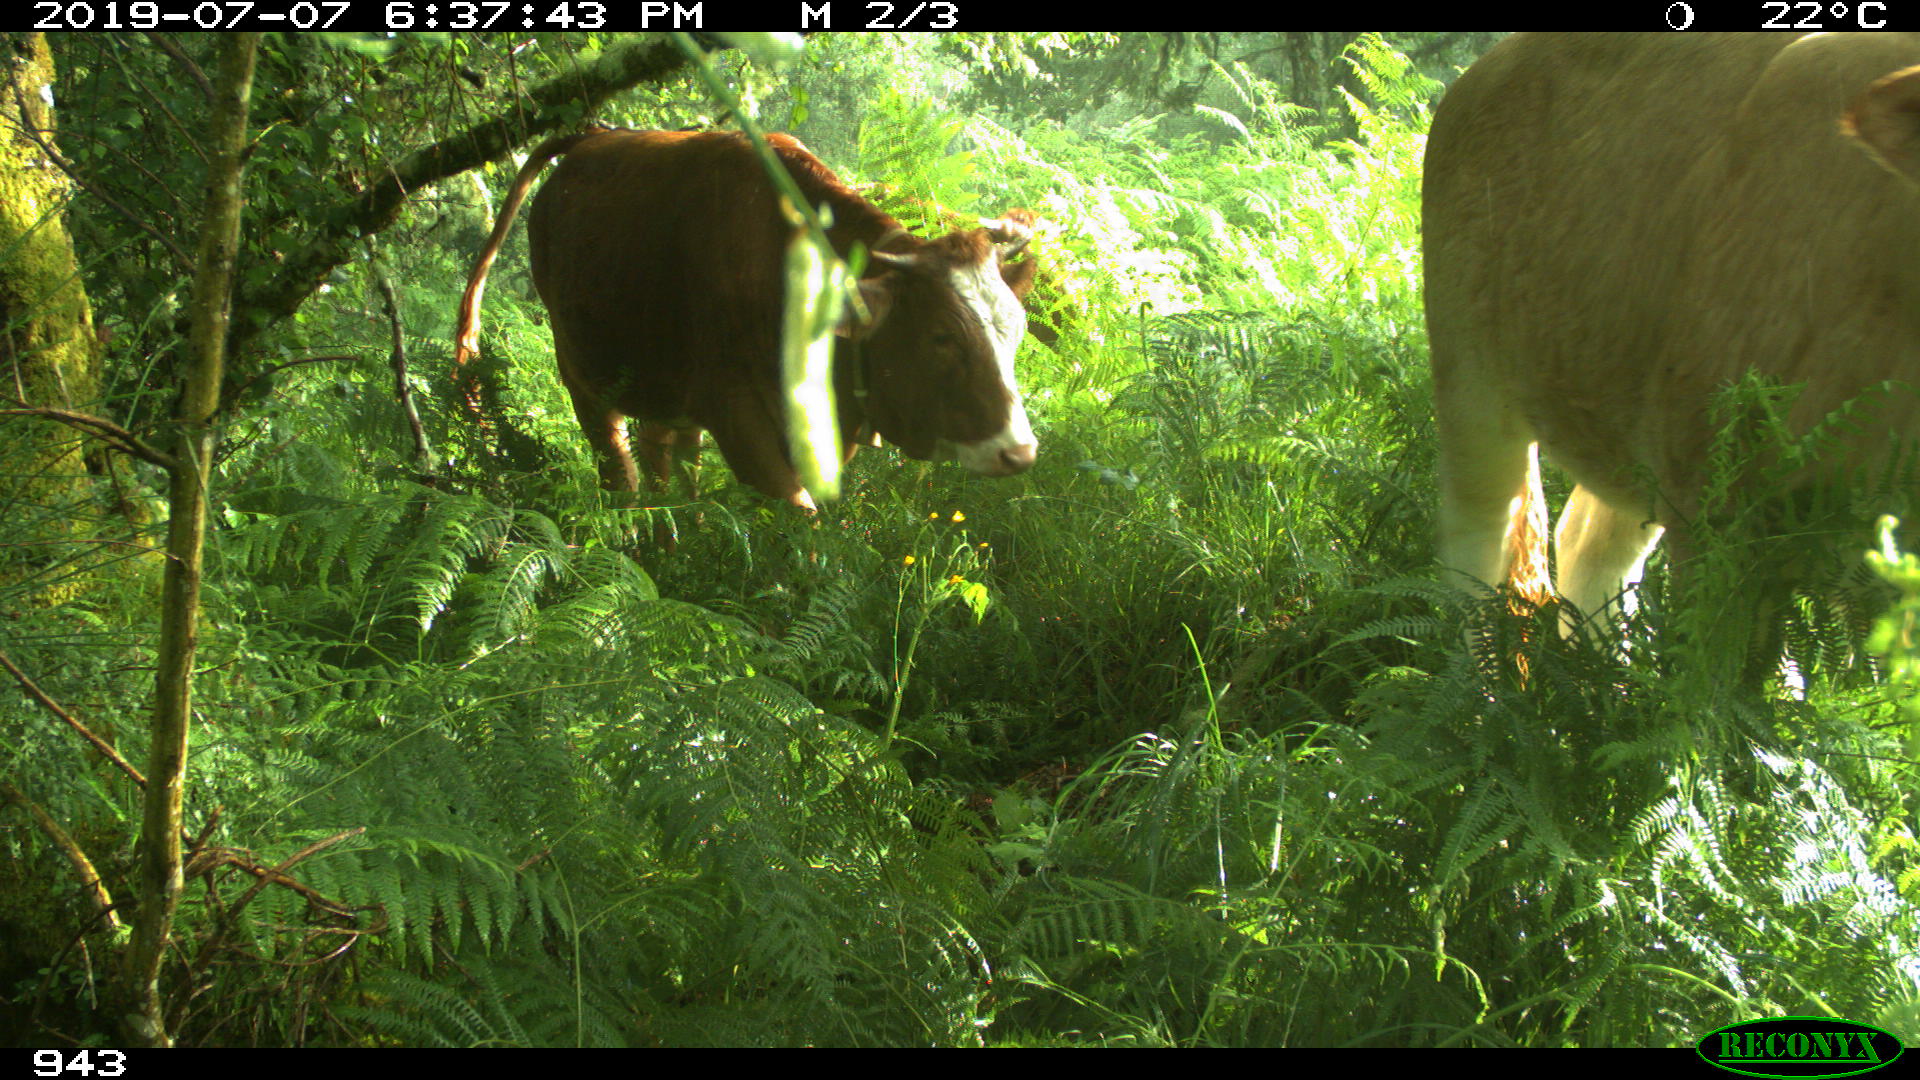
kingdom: Animalia
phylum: Chordata
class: Mammalia
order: Artiodactyla
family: Bovidae
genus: Bos
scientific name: Bos taurus
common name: Domesticated cattle
